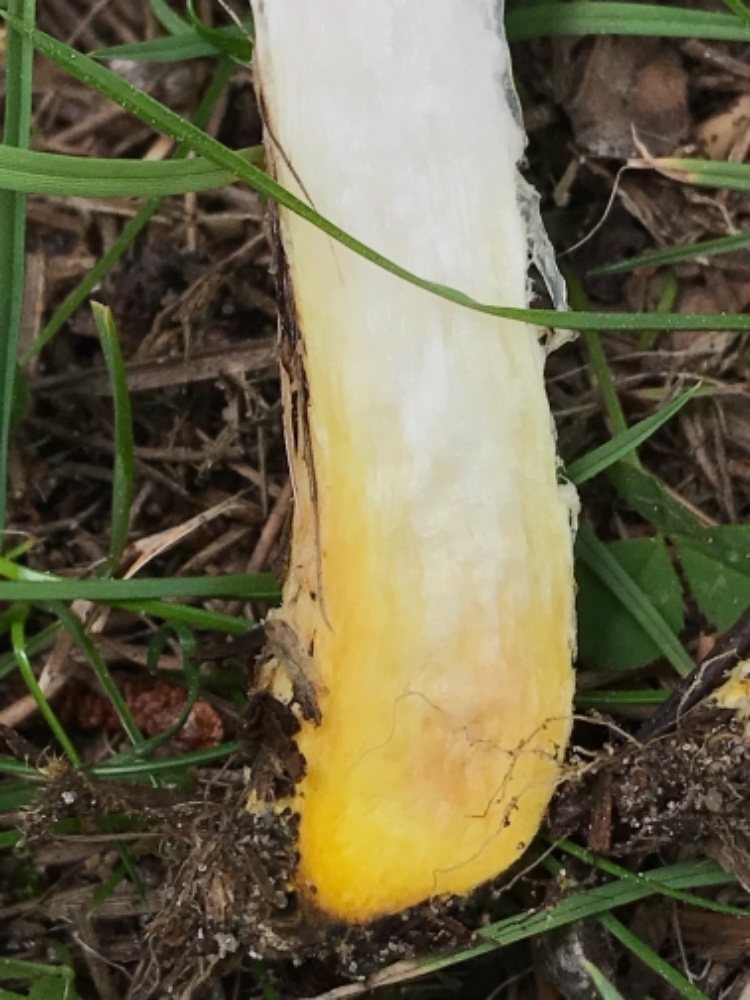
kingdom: Fungi
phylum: Basidiomycota
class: Agaricomycetes
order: Boletales
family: Gomphidiaceae
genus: Gomphidius
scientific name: Gomphidius glutinosus
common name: grå slimslør
